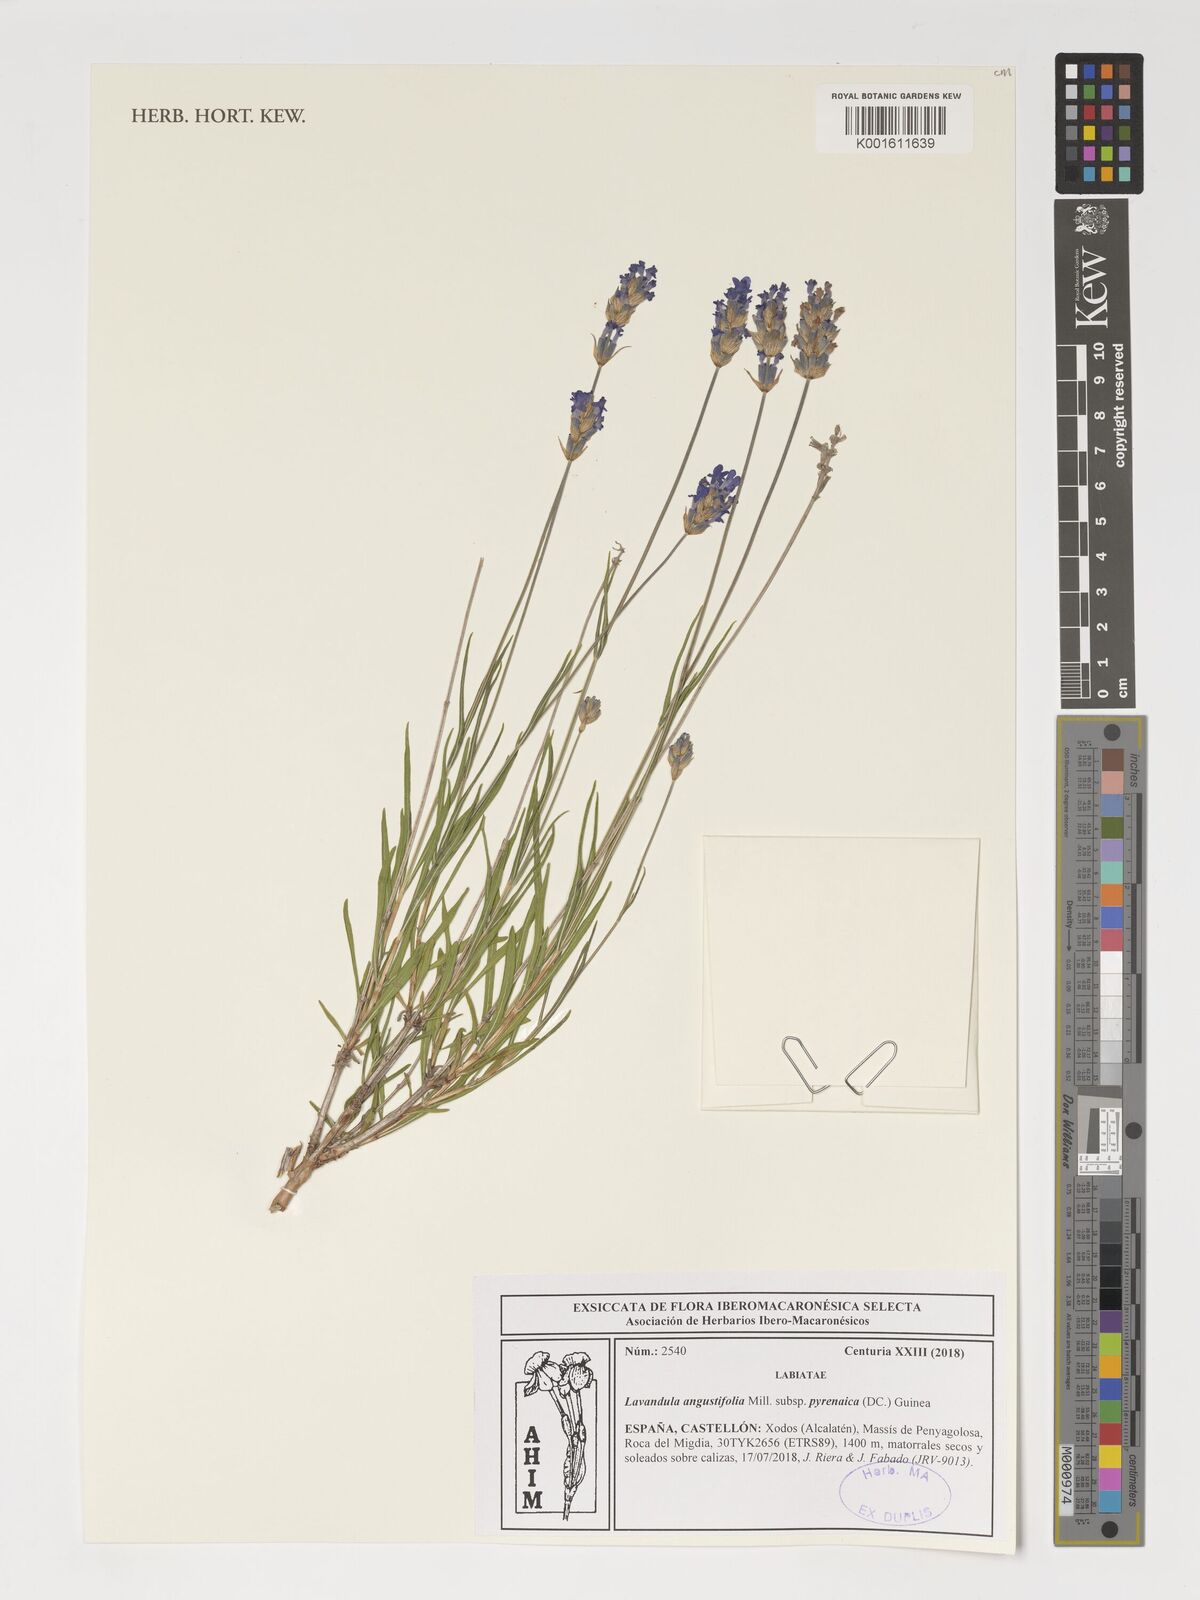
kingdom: Plantae
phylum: Tracheophyta
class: Magnoliopsida
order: Lamiales
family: Lamiaceae
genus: Lavandula
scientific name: Lavandula angustifolia
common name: Garden lavender
